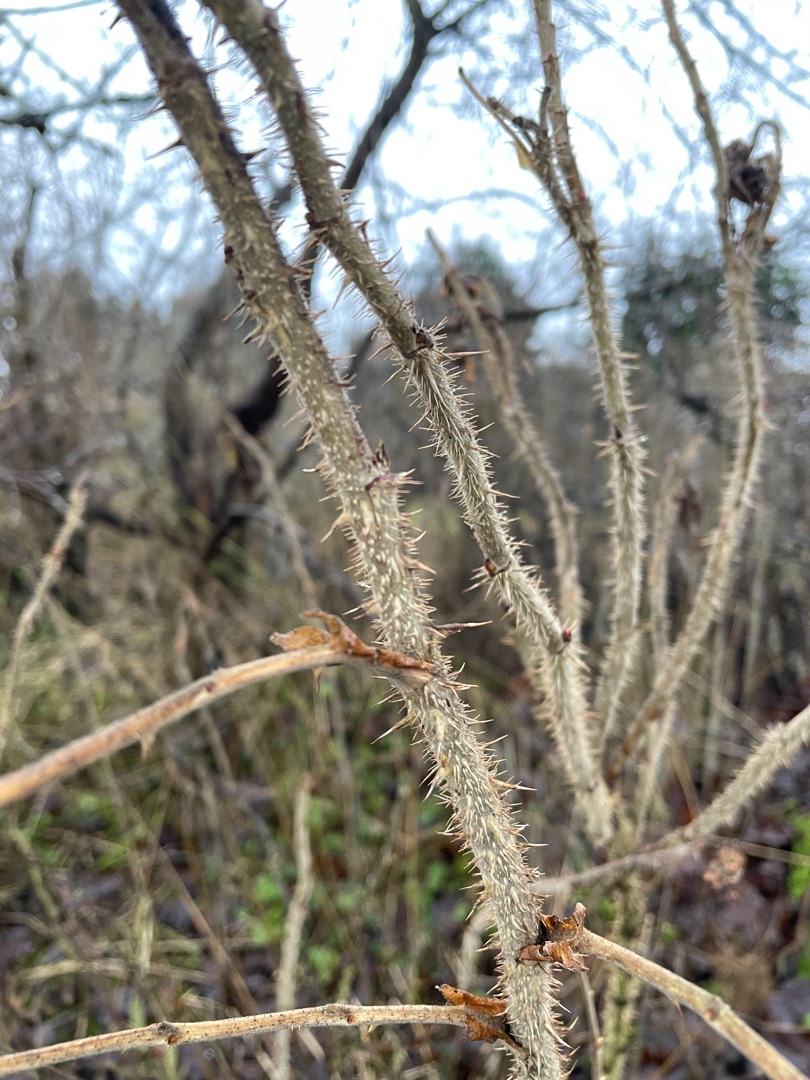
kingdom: Plantae
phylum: Tracheophyta
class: Magnoliopsida
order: Rosales
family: Rosaceae
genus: Rosa
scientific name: Rosa rugosa
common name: Rynket rose
